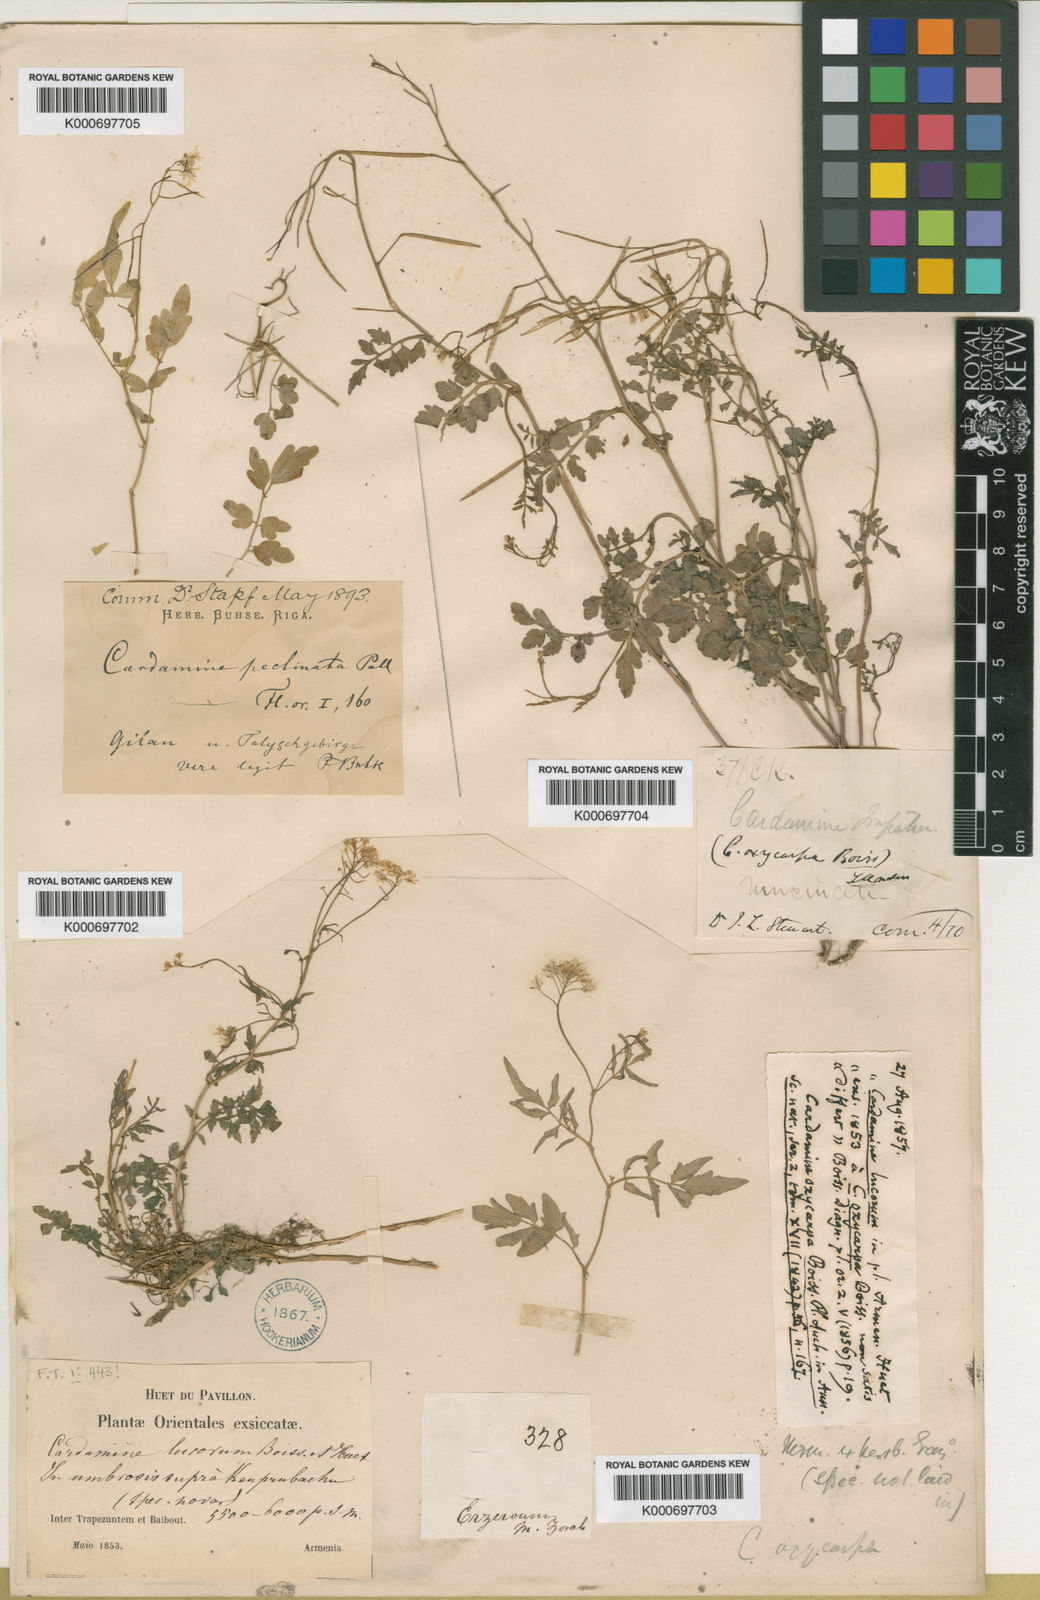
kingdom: Plantae
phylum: Tracheophyta
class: Magnoliopsida
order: Brassicales
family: Brassicaceae
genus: Cardamine
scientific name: Cardamine impatiens
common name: Narrow-leaved bitter-cress
